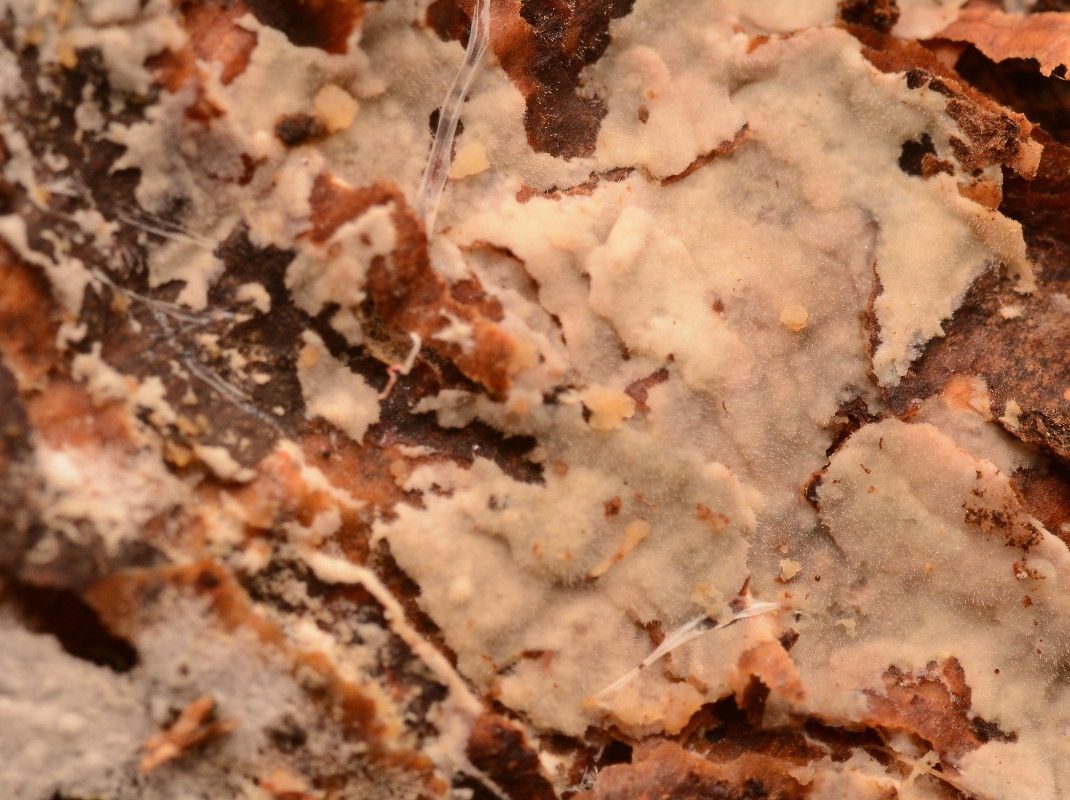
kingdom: Fungi
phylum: Basidiomycota
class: Agaricomycetes
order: Hymenochaetales
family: Rickenellaceae
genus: Peniophorella
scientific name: Peniophorella pubera
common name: dunet kalkskind
